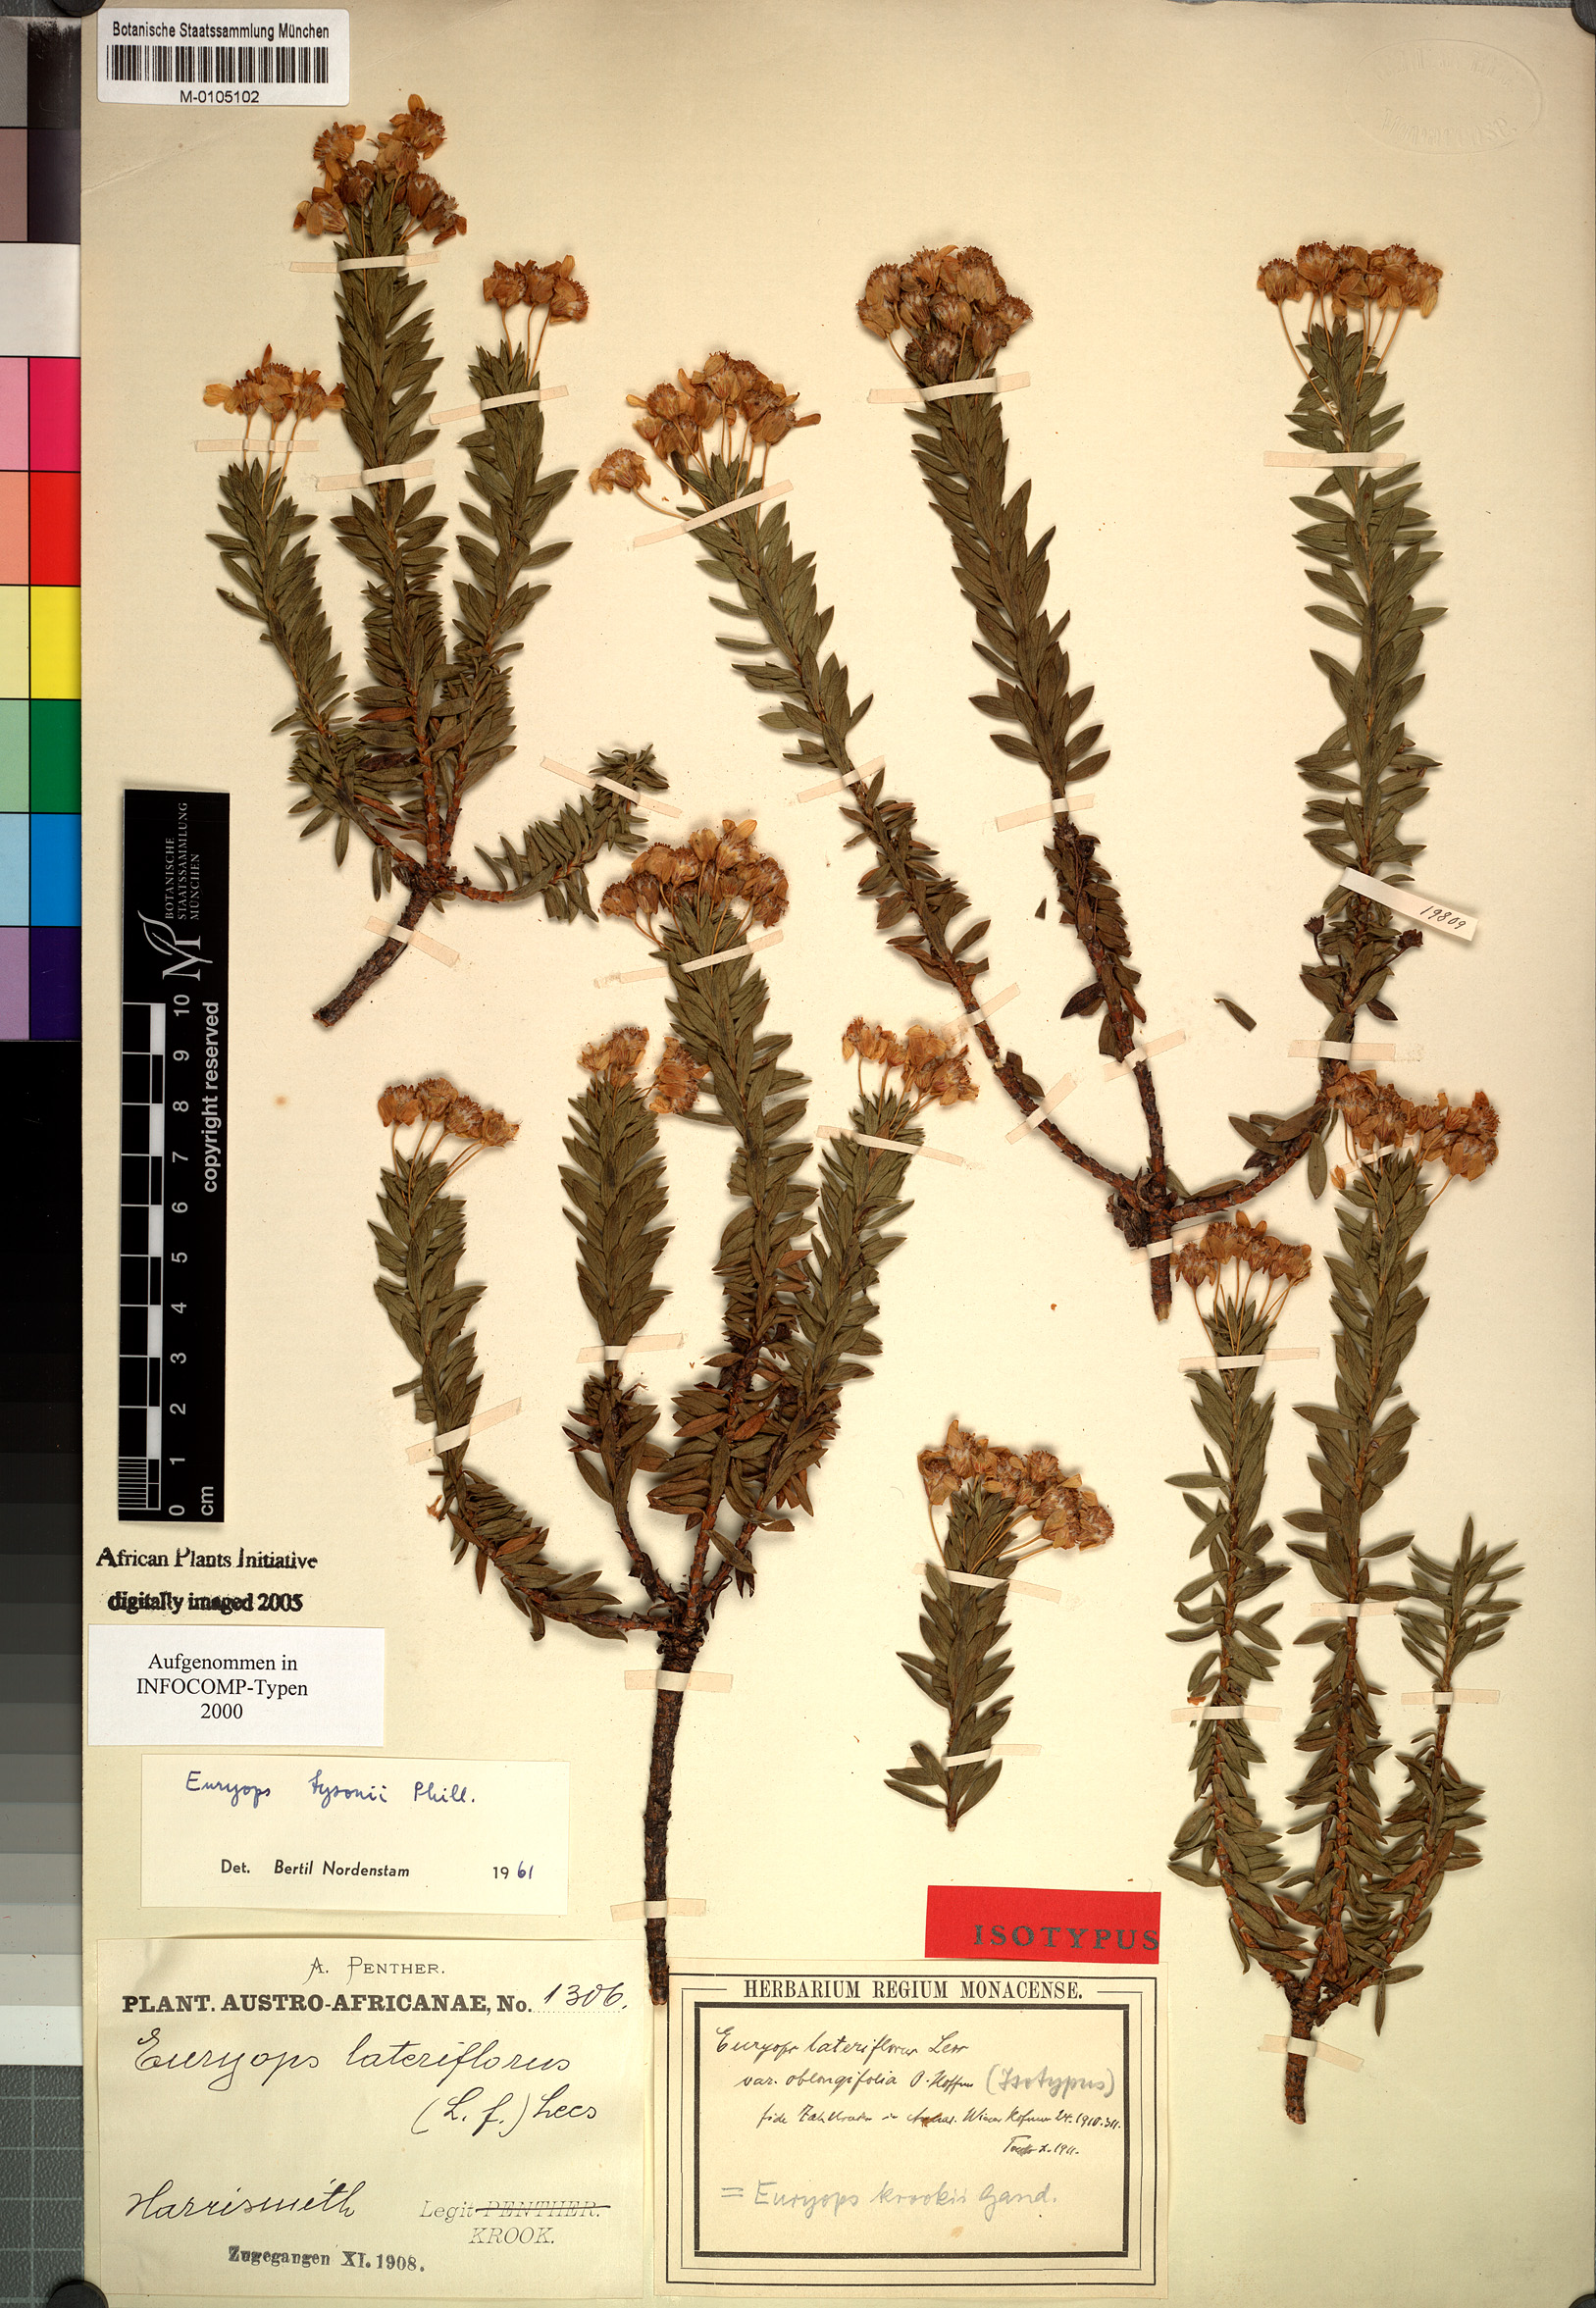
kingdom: Plantae
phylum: Tracheophyta
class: Magnoliopsida
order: Asterales
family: Asteraceae
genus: Euryops
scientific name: Euryops tysonii
